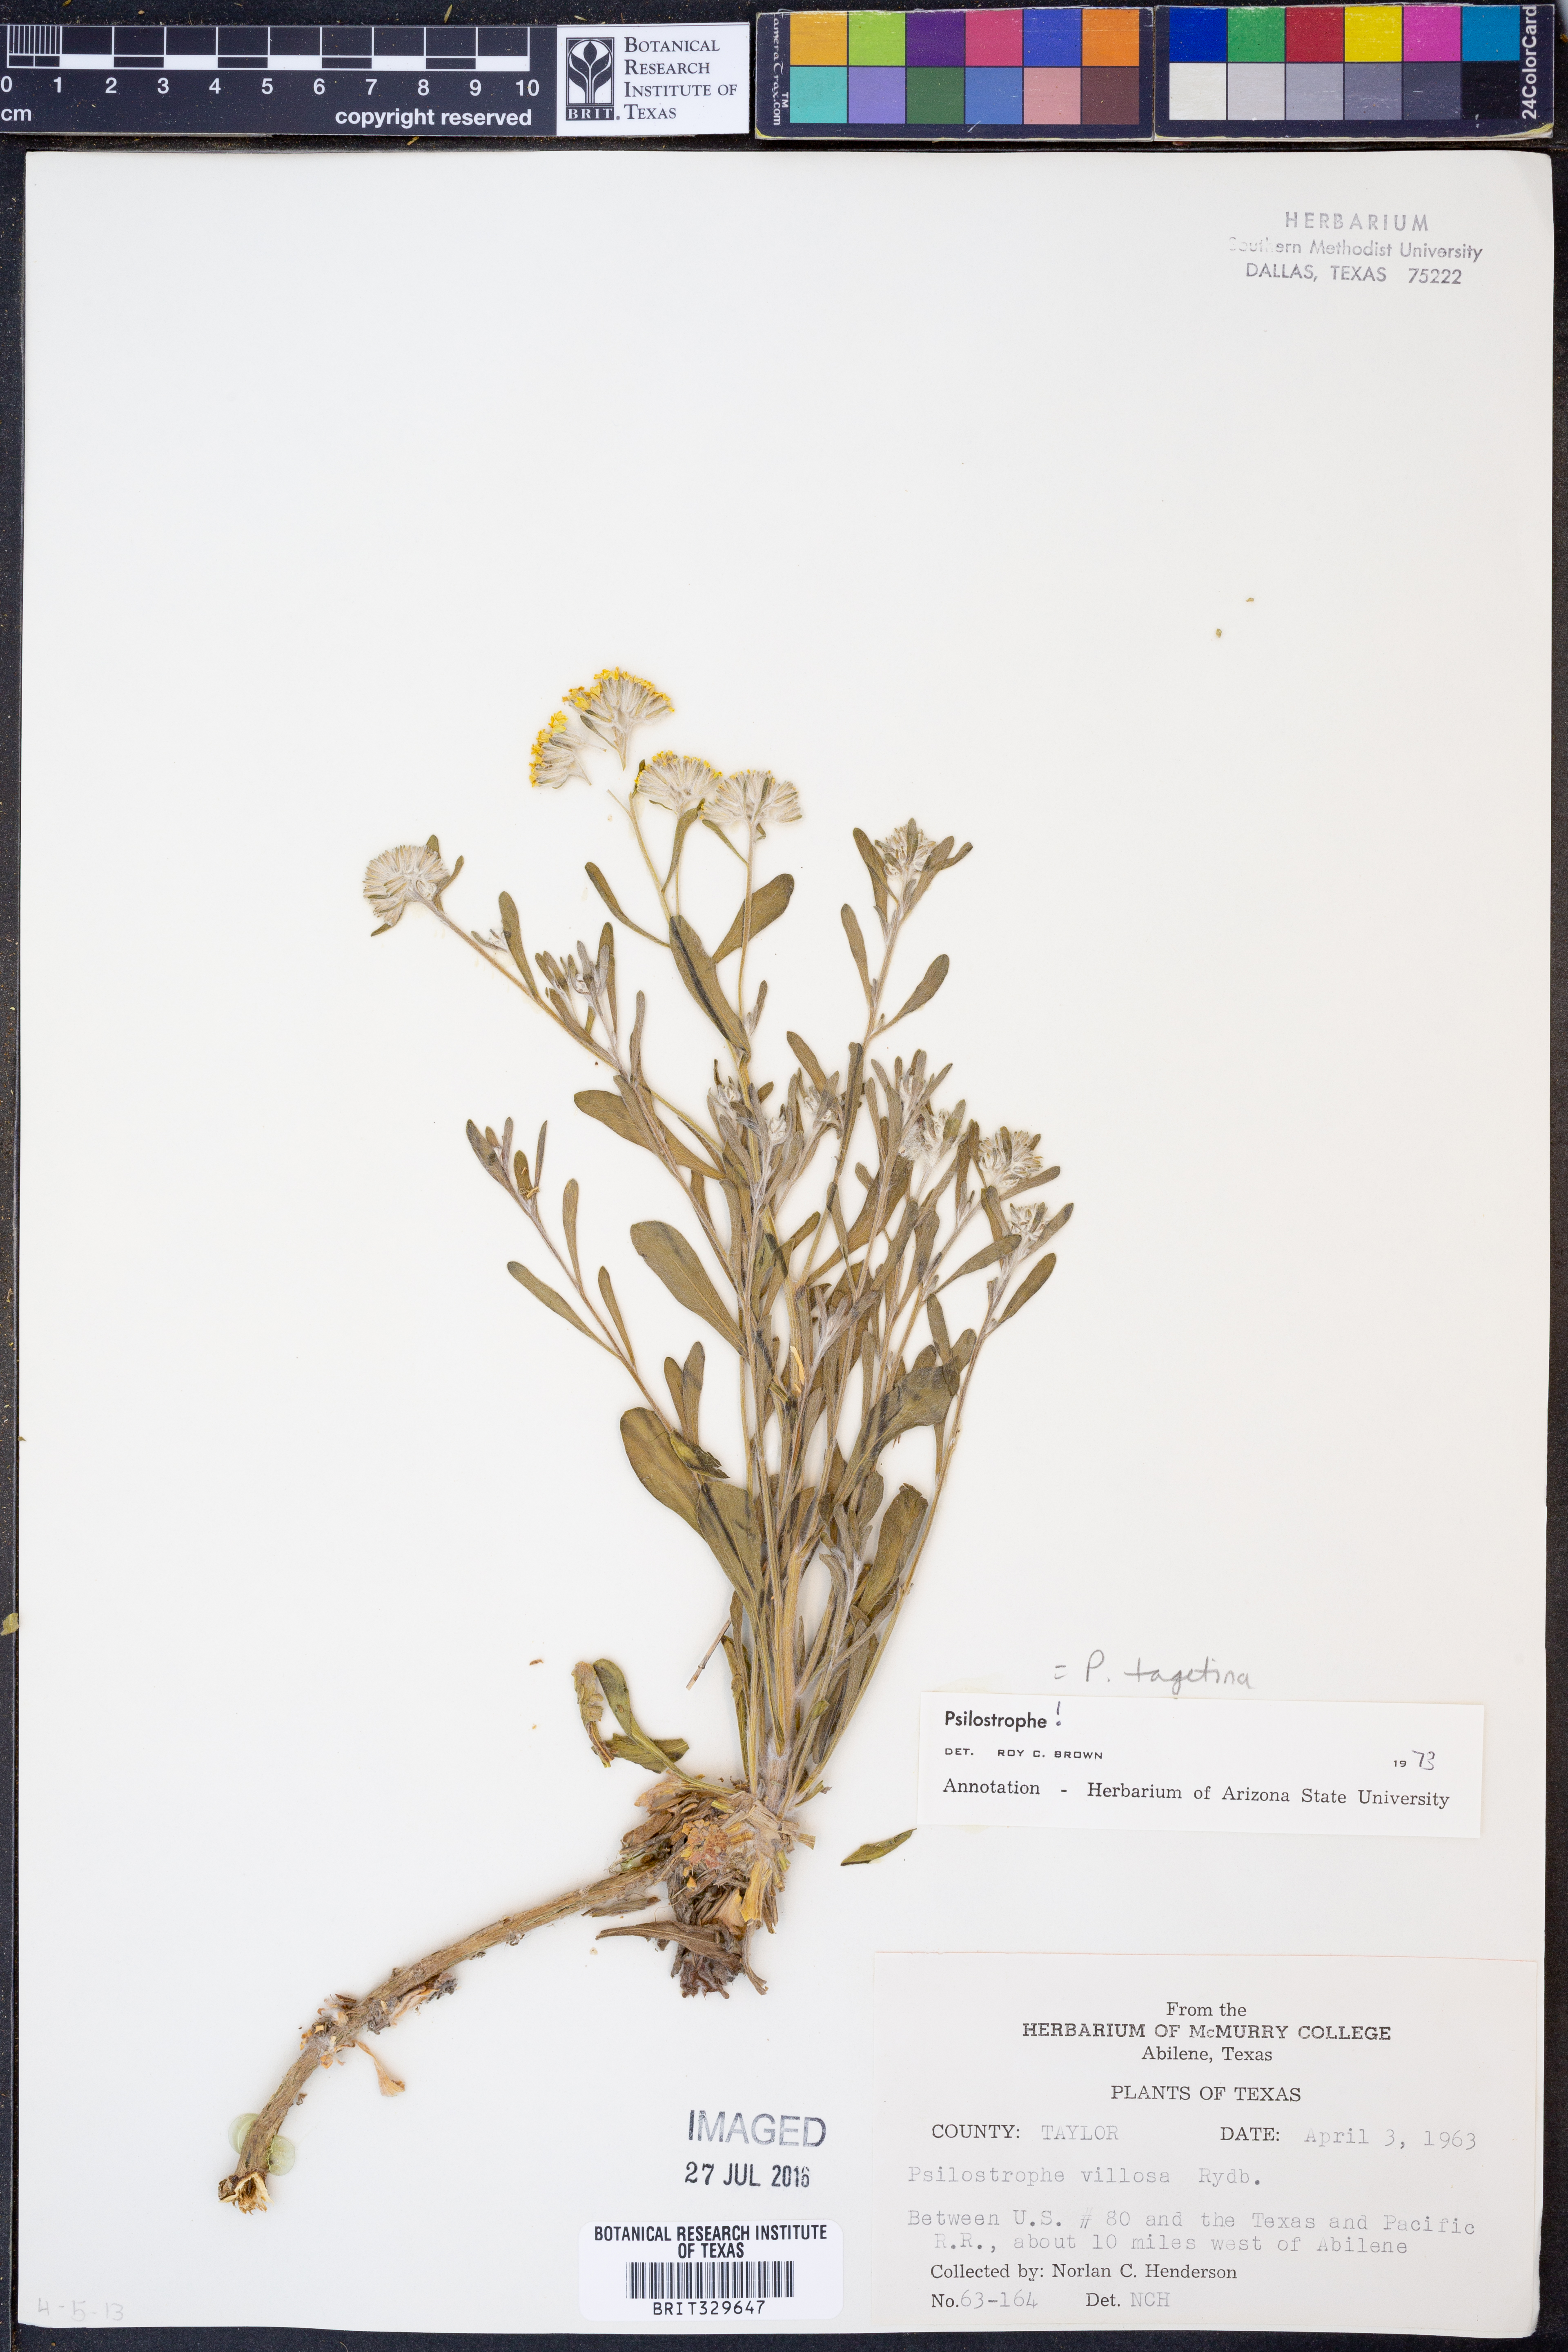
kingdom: Plantae
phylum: Tracheophyta
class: Magnoliopsida
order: Asterales
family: Asteraceae
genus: Psilostrophe
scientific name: Psilostrophe tagetina
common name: Marigold paper-flower
